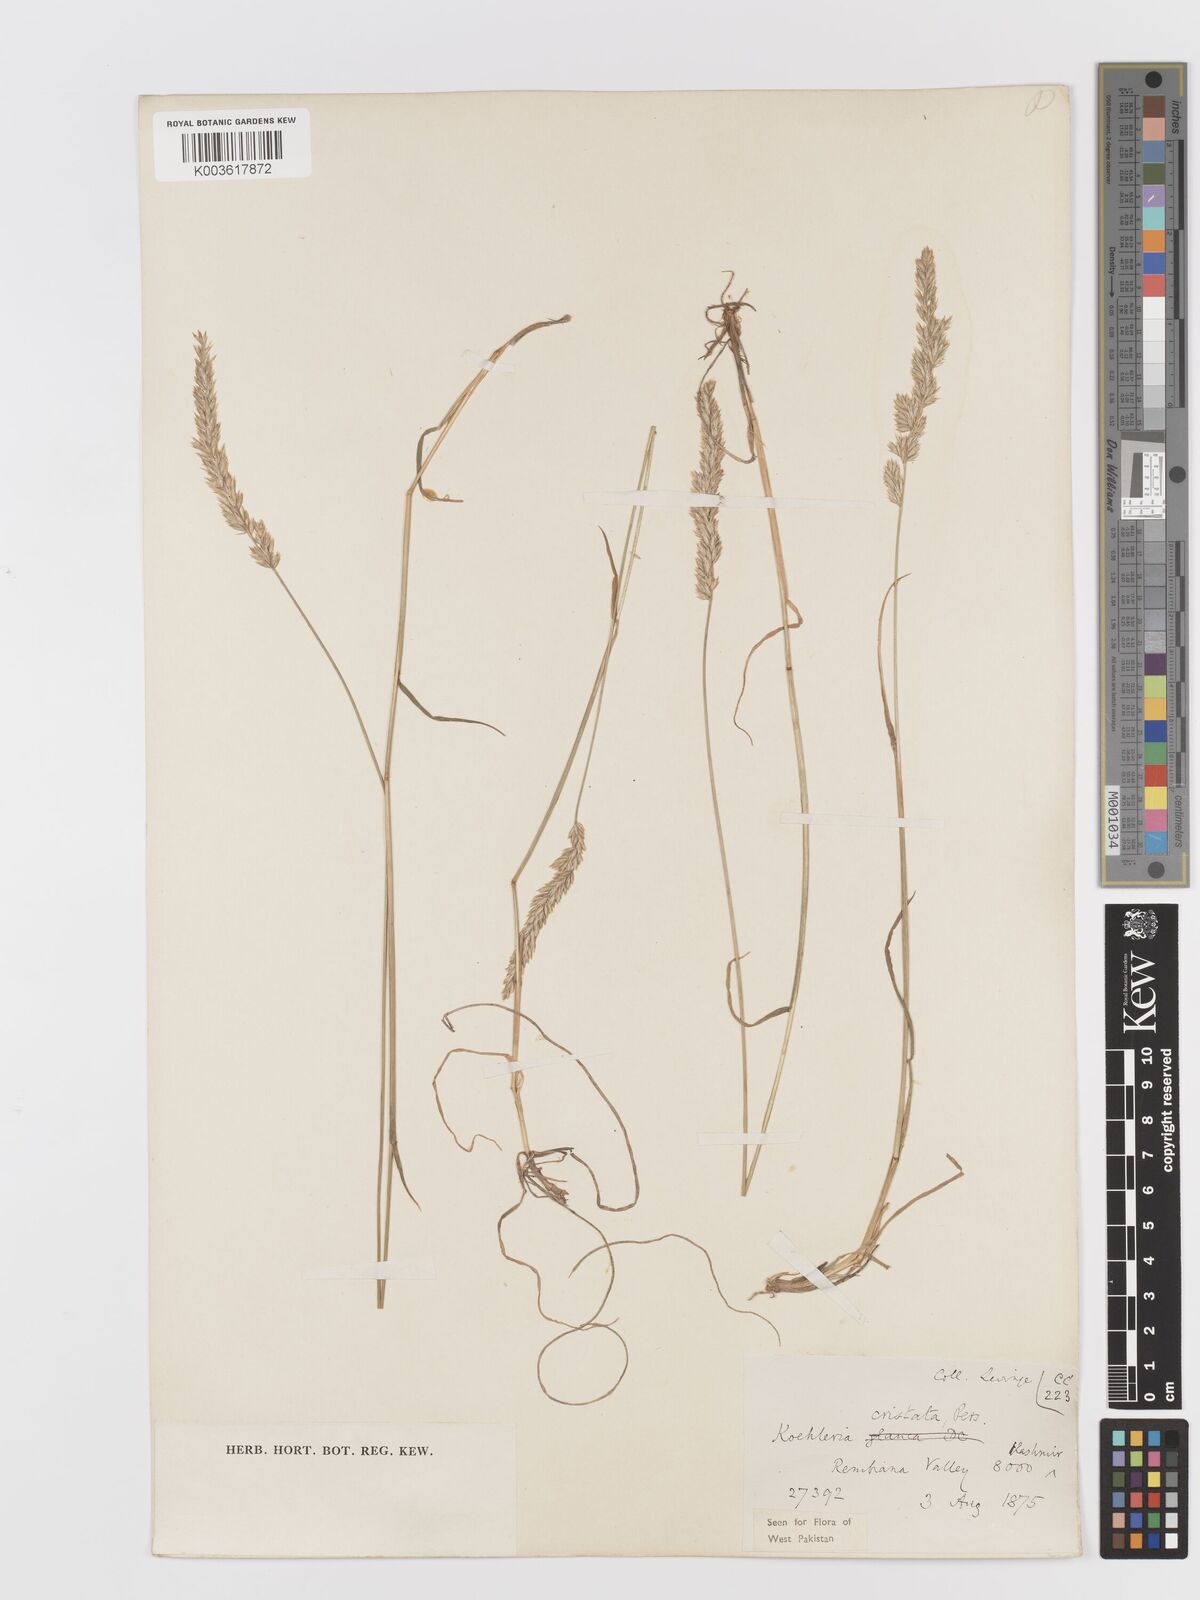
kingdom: Plantae
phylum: Tracheophyta
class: Liliopsida
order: Poales
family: Poaceae
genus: Koeleria
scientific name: Koeleria
